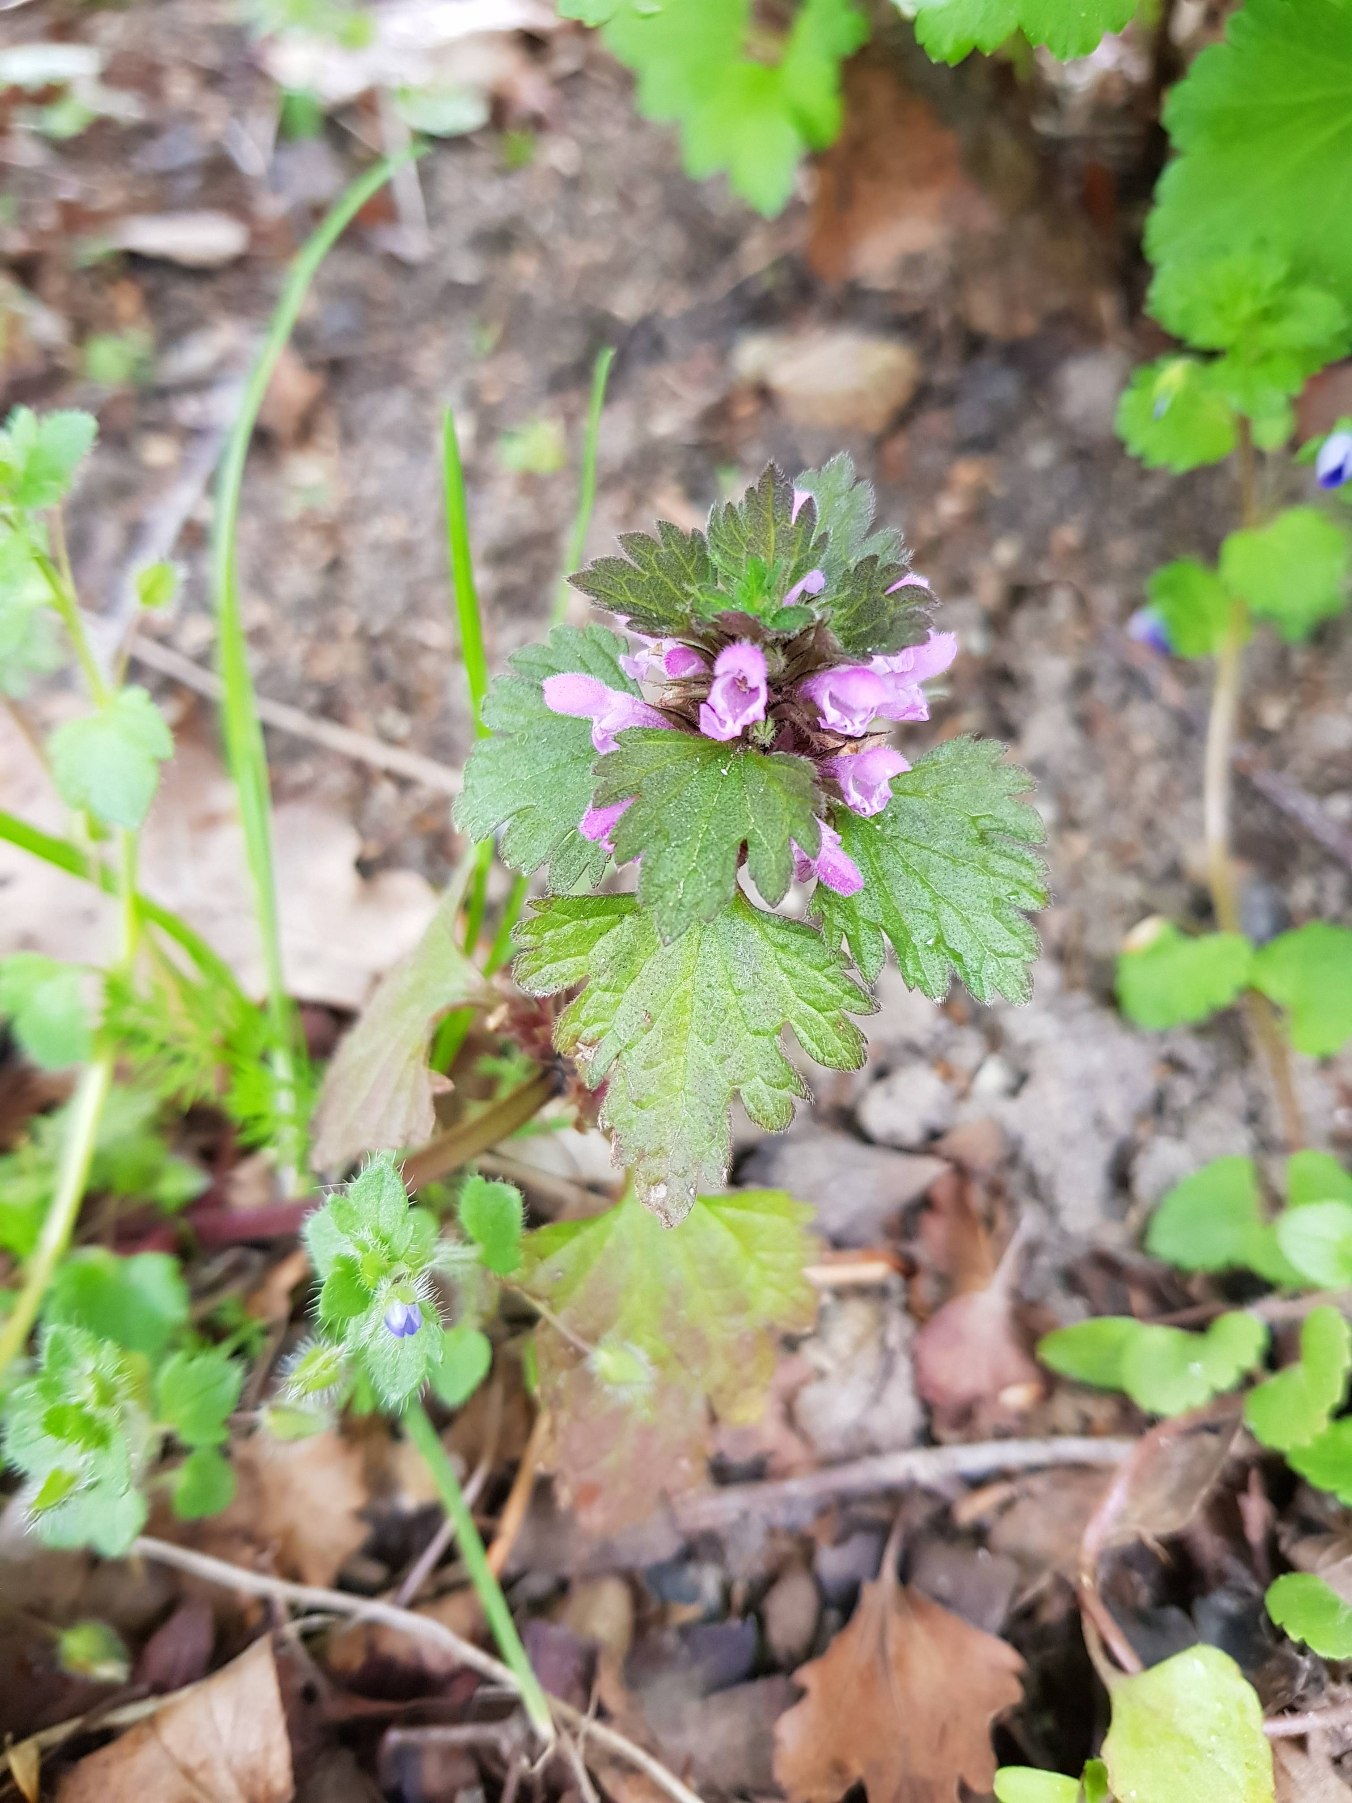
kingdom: Plantae
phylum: Tracheophyta
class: Magnoliopsida
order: Lamiales
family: Lamiaceae
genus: Lamium
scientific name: Lamium hybridum
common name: Fliget tvetand
